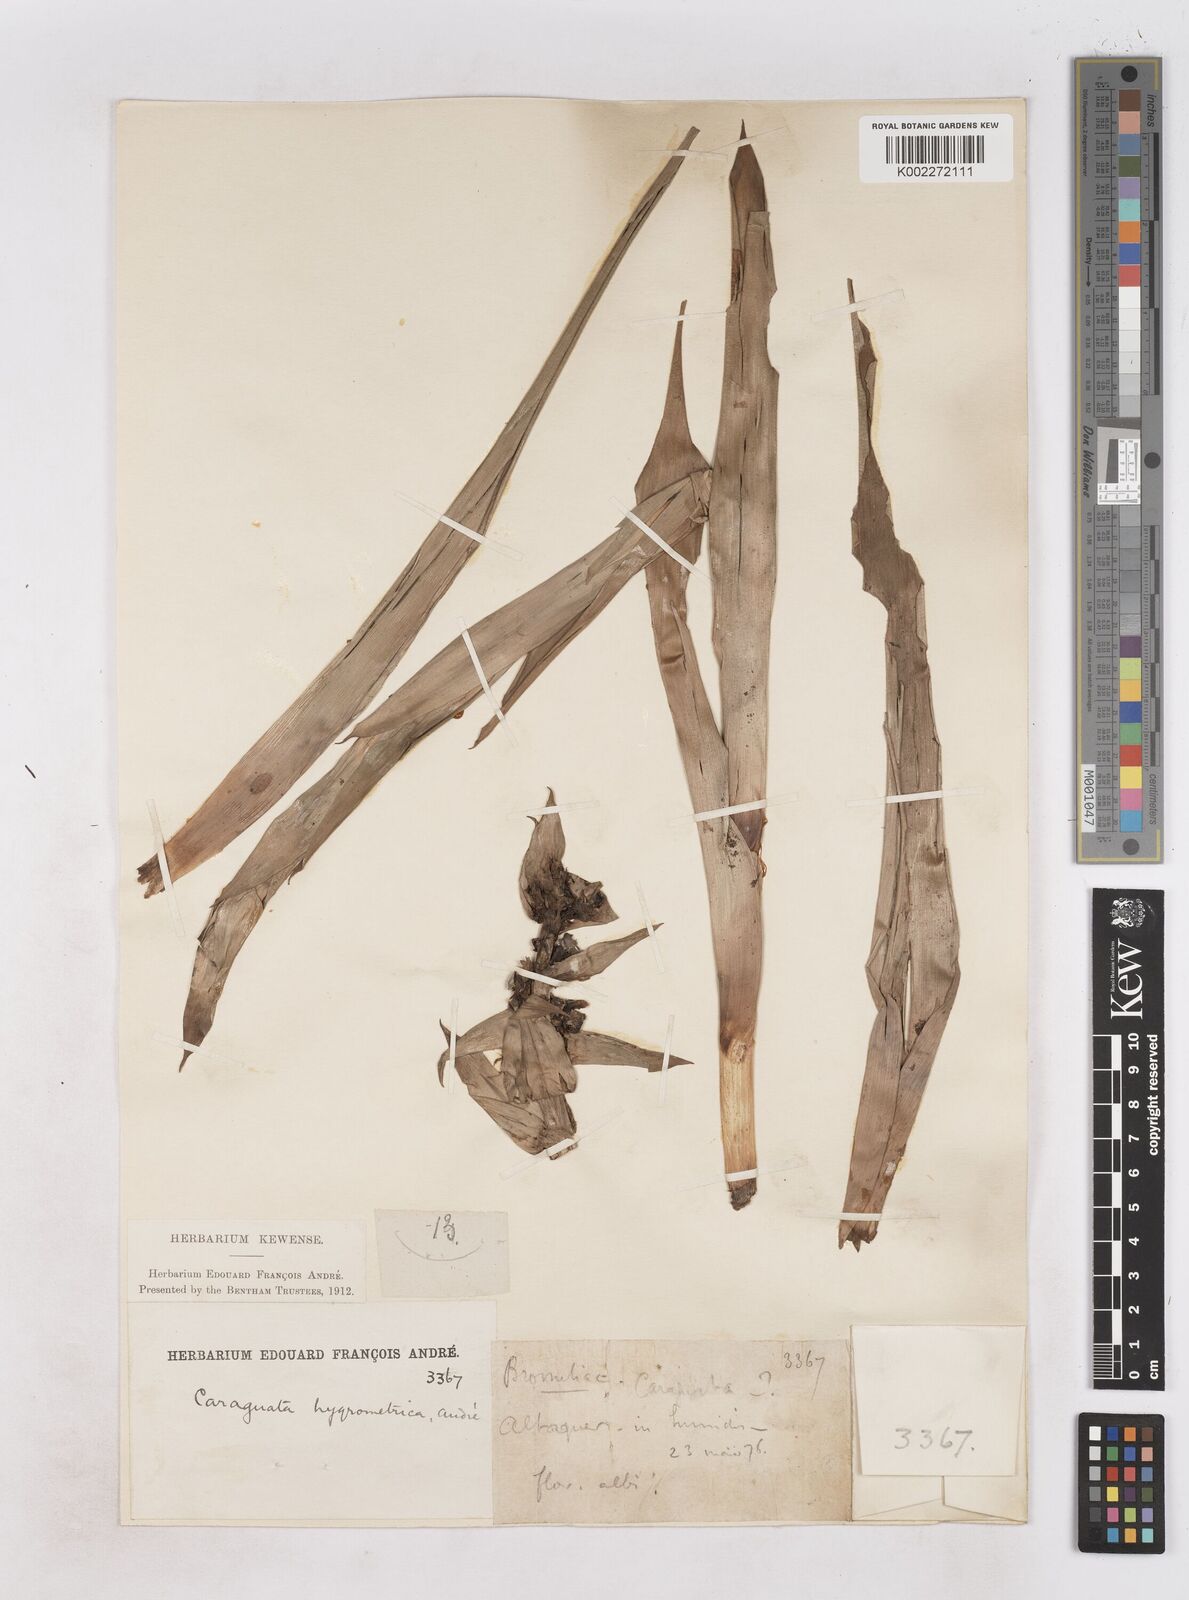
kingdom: Plantae
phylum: Tracheophyta
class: Liliopsida
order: Poales
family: Bromeliaceae
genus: Werauhia
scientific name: Werauhia hygrometrica
